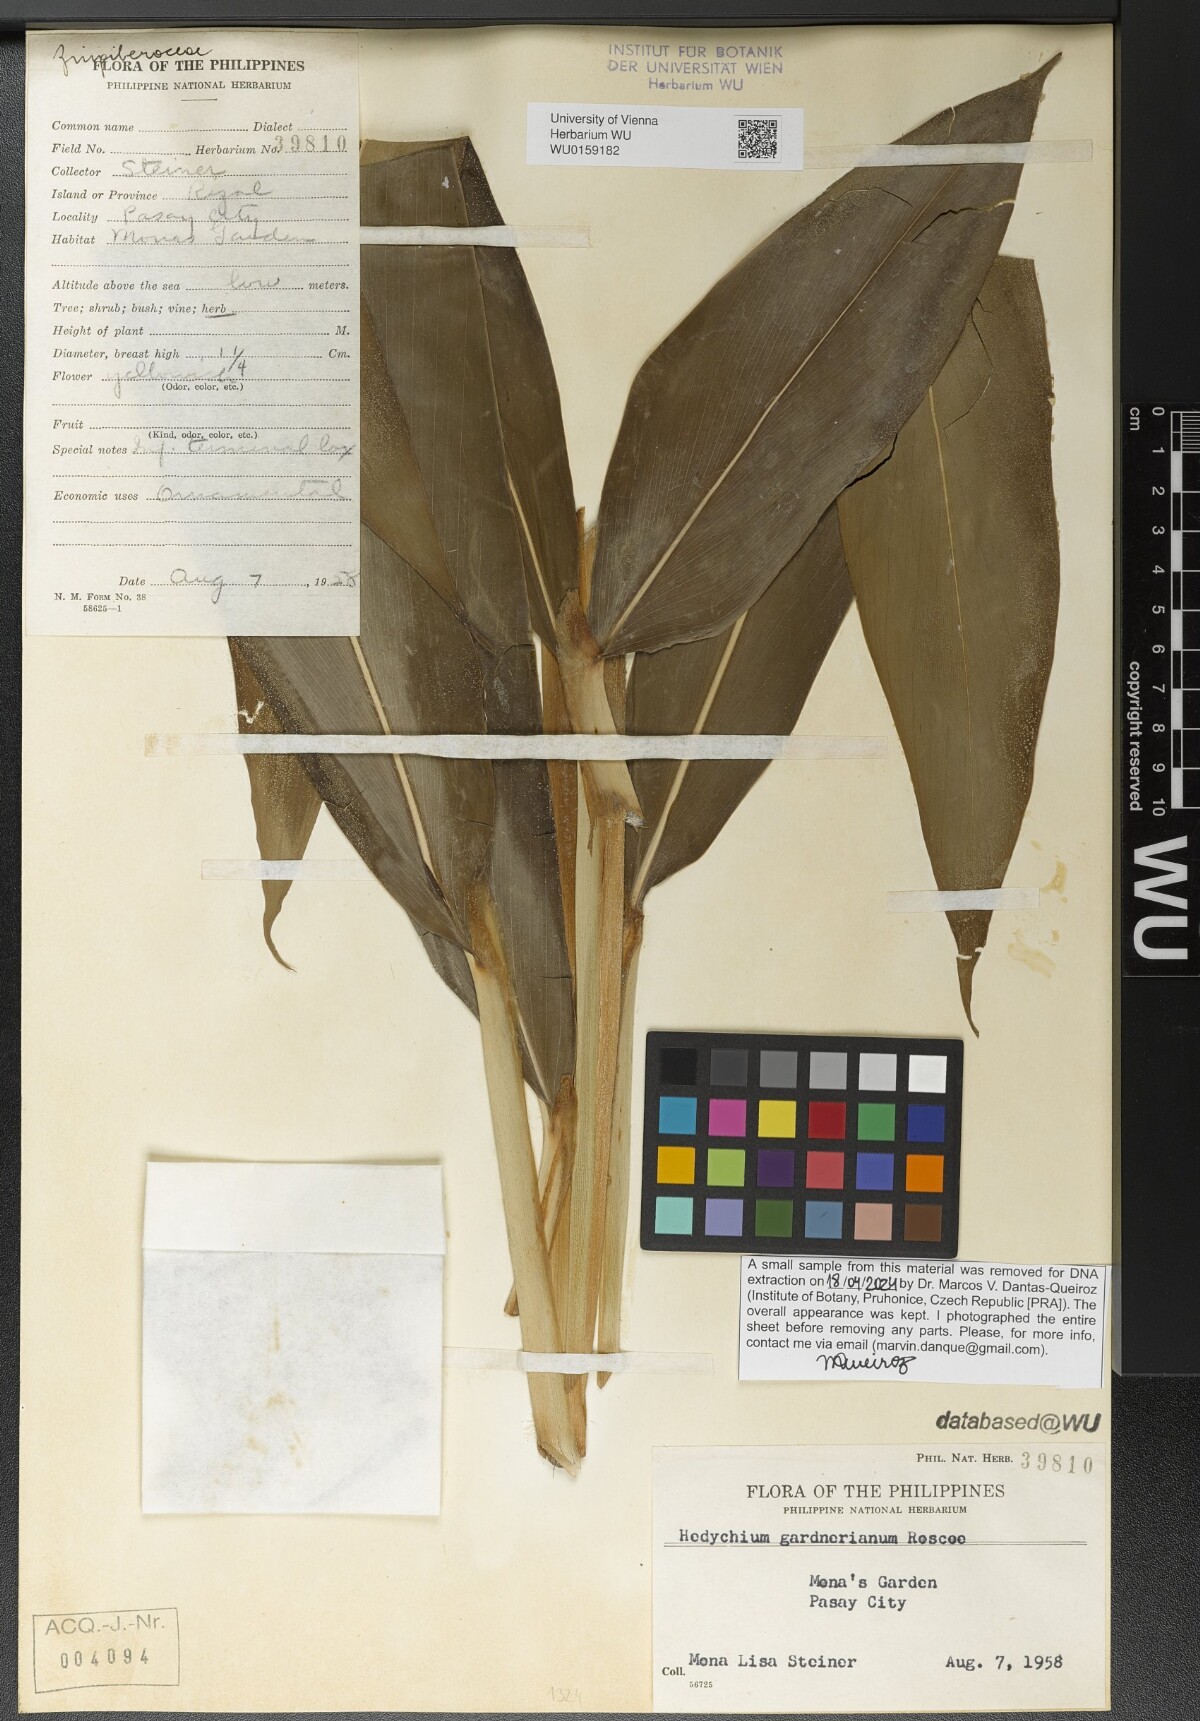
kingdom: Plantae
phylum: Tracheophyta
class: Liliopsida
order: Zingiberales
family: Zingiberaceae
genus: Hedychium
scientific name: Hedychium gardnerianum
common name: Himalayan ginger
